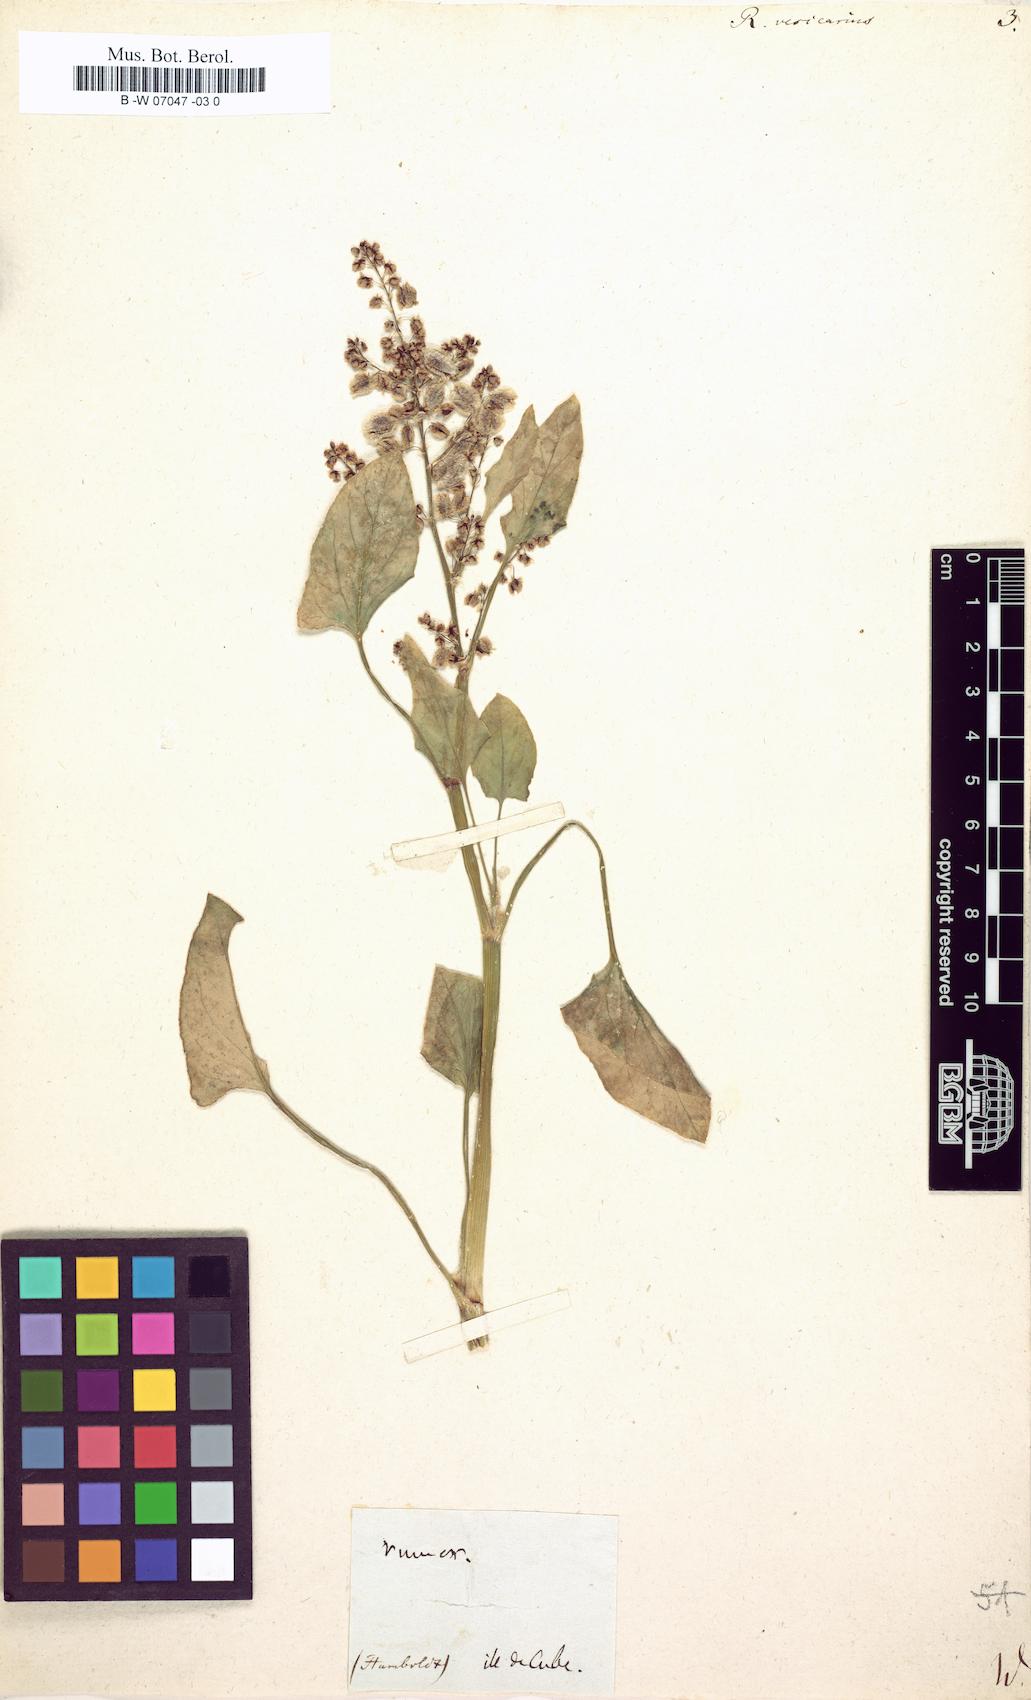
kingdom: Plantae
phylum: Tracheophyta
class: Magnoliopsida
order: Caryophyllales
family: Polygonaceae
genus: Rumex
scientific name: Rumex vesicarius
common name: Bladder dock
